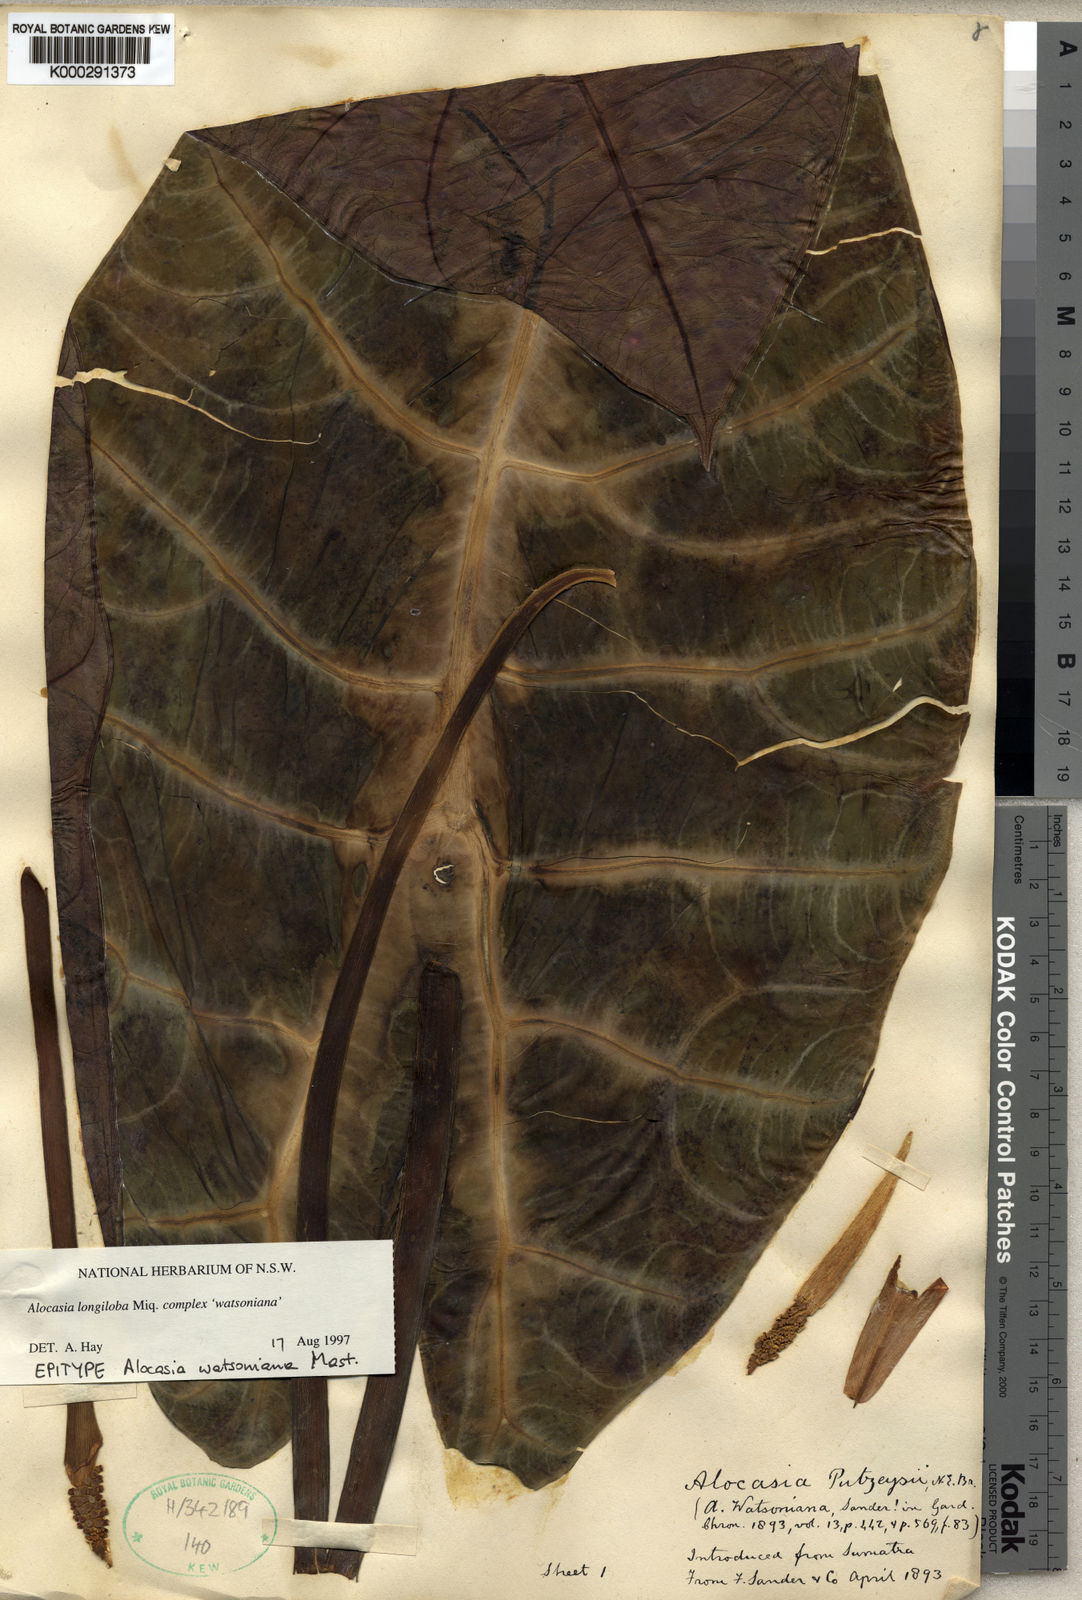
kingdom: Plantae
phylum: Tracheophyta
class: Liliopsida
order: Alismatales
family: Araceae
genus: Alocasia
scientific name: Alocasia longiloba
